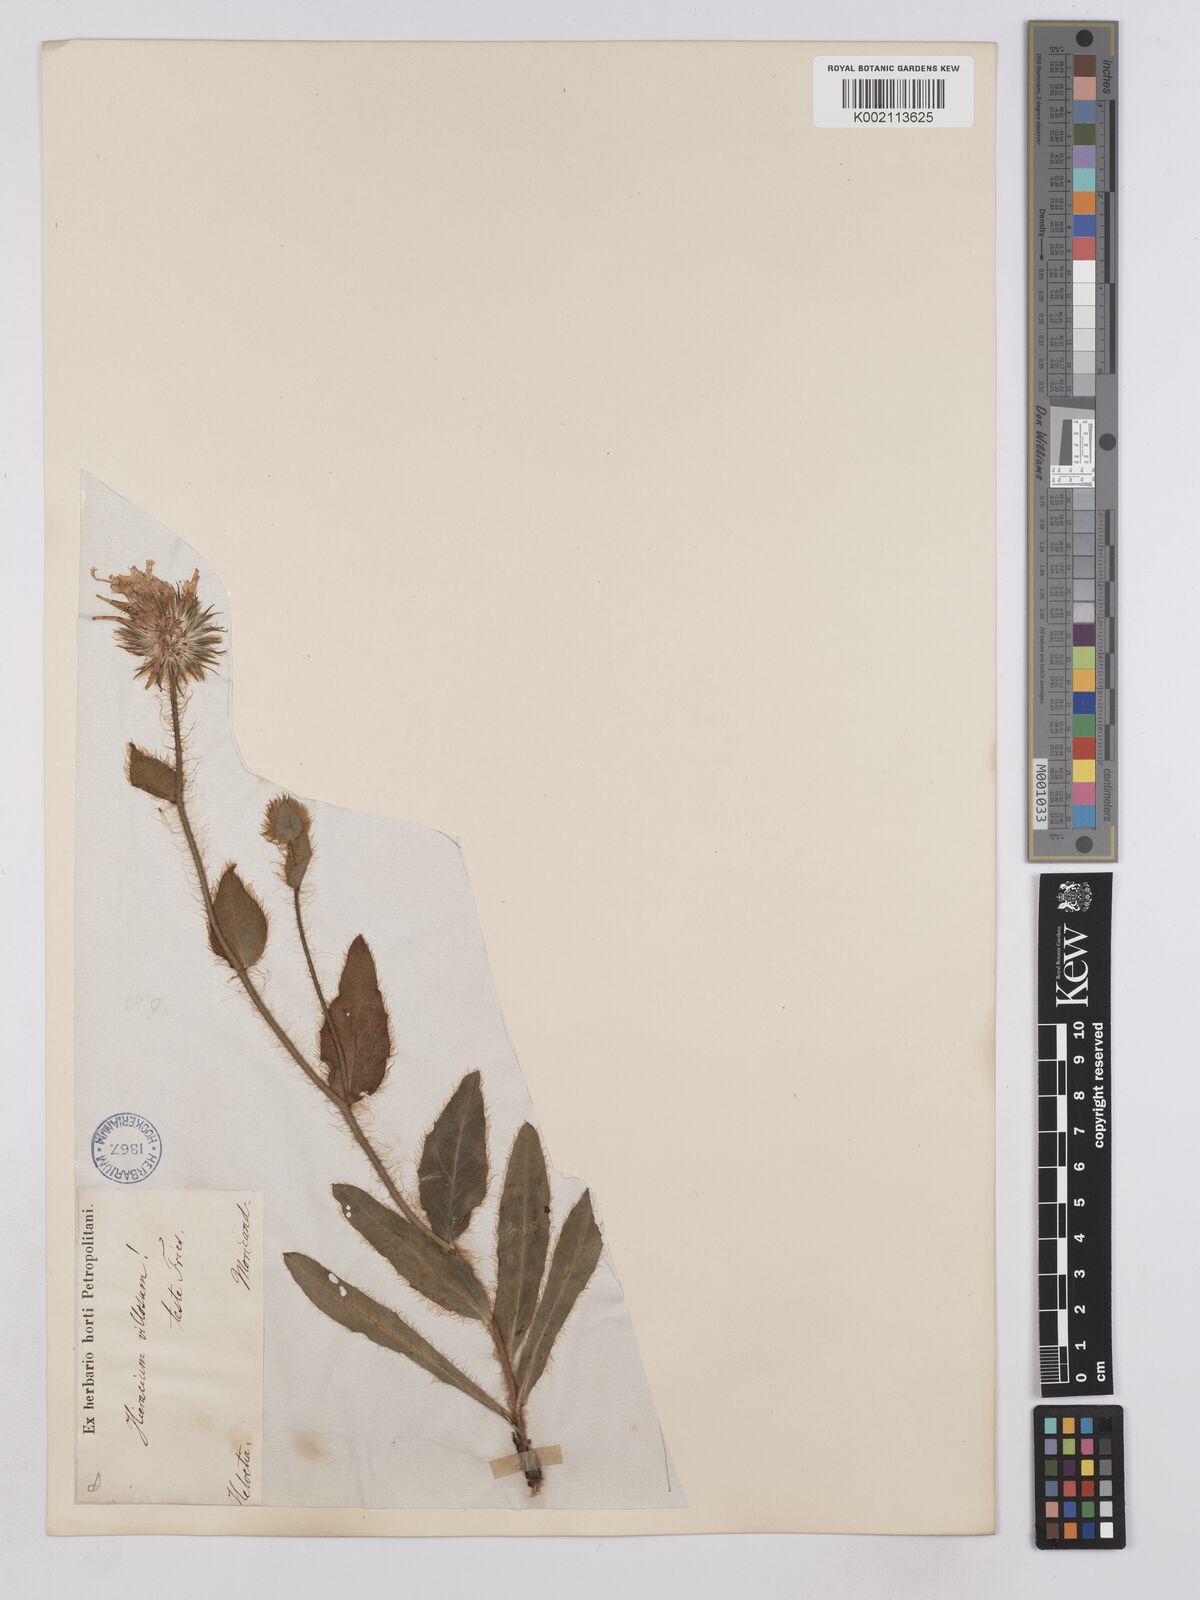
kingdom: Plantae
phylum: Tracheophyta
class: Magnoliopsida
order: Asterales
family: Asteraceae
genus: Hieracium
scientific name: Hieracium villosum
